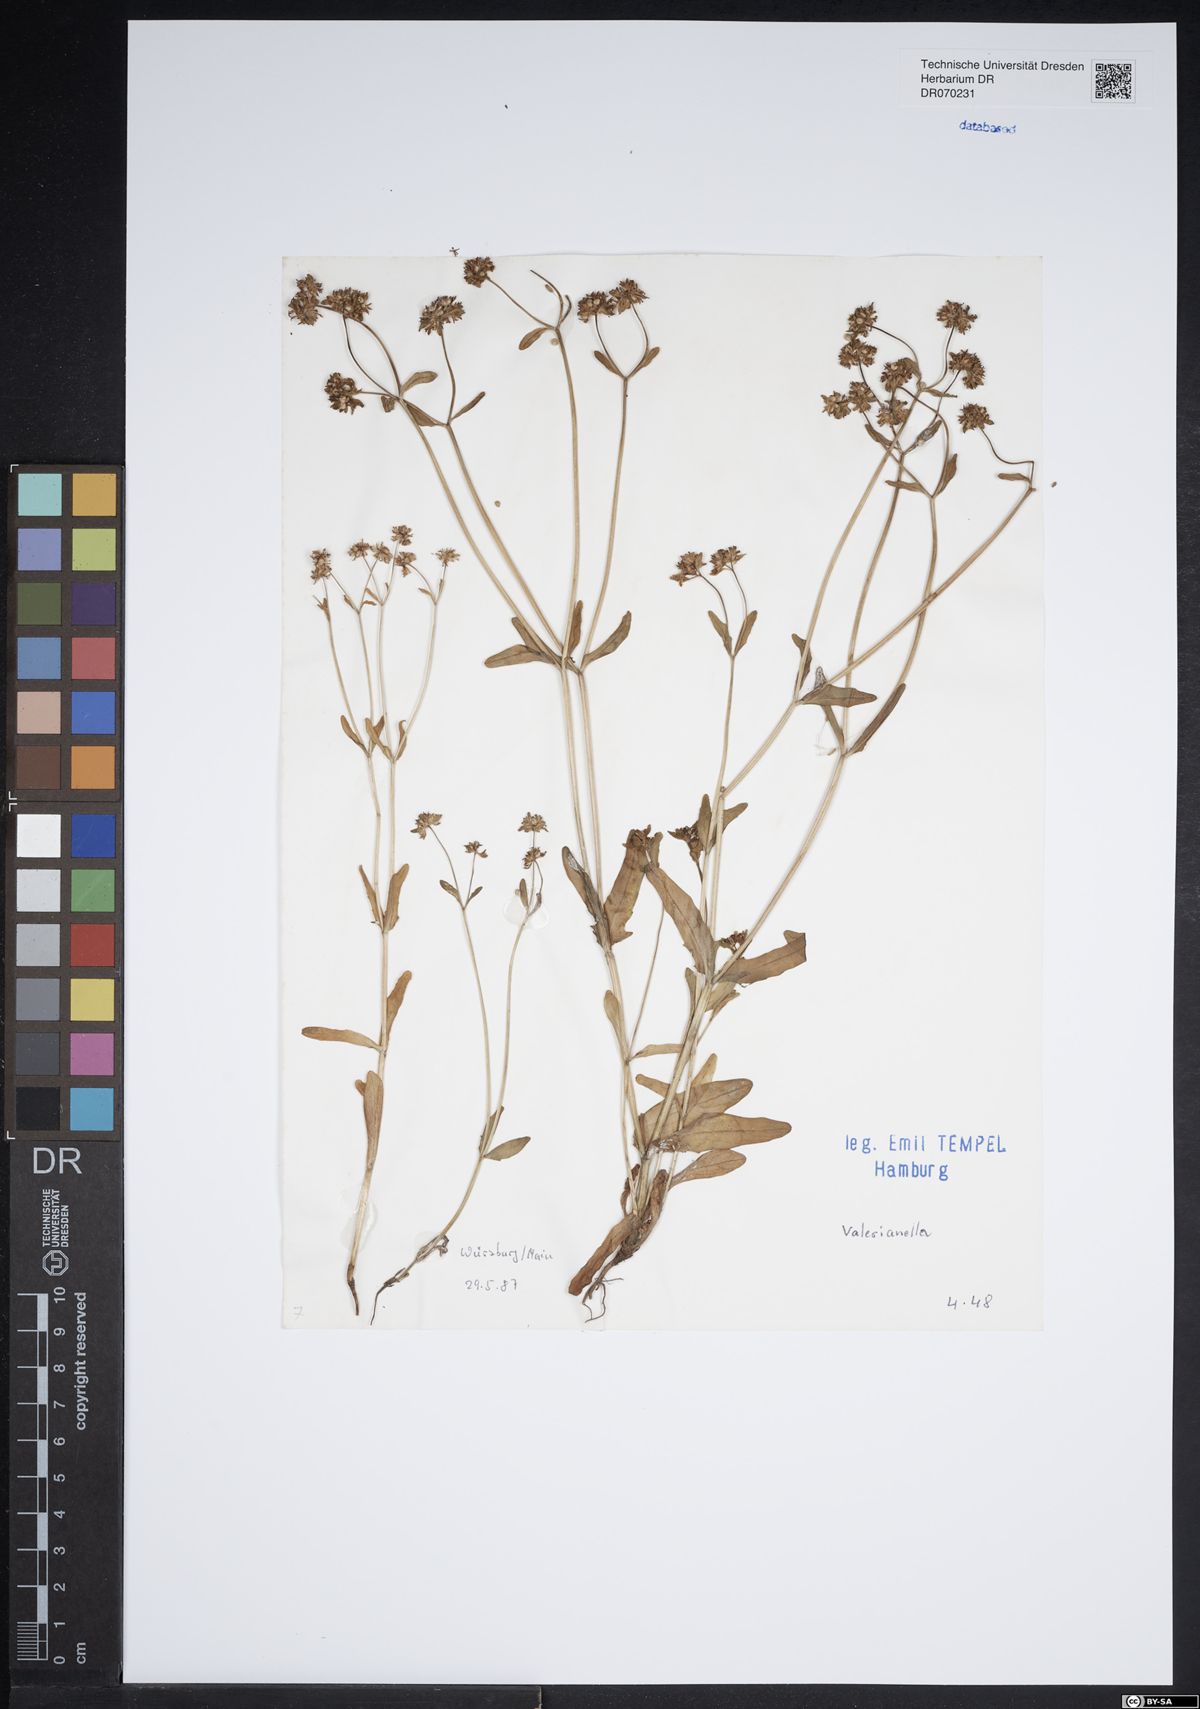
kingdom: Plantae
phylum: Tracheophyta
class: Magnoliopsida
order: Dipsacales
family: Caprifoliaceae
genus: Valerianella
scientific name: Valerianella
